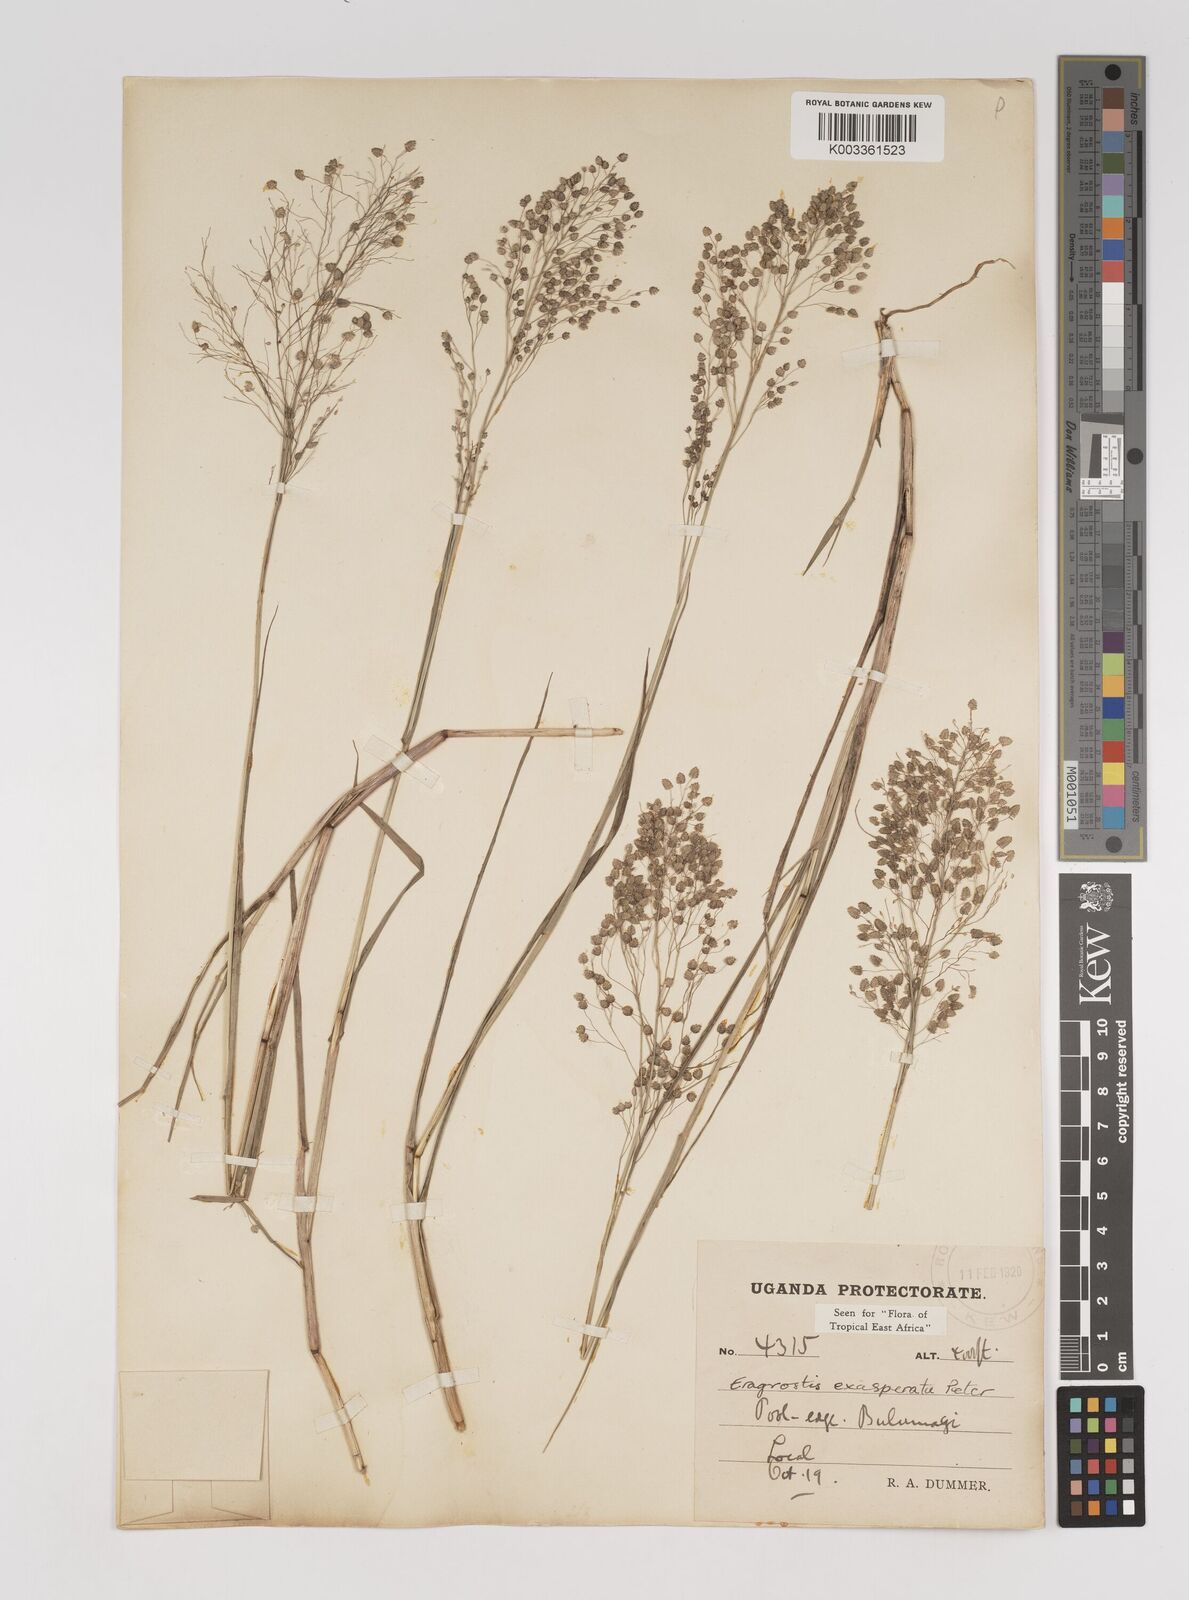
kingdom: Plantae
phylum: Tracheophyta
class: Liliopsida
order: Poales
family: Poaceae
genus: Eragrostis
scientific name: Eragrostis exasperata
